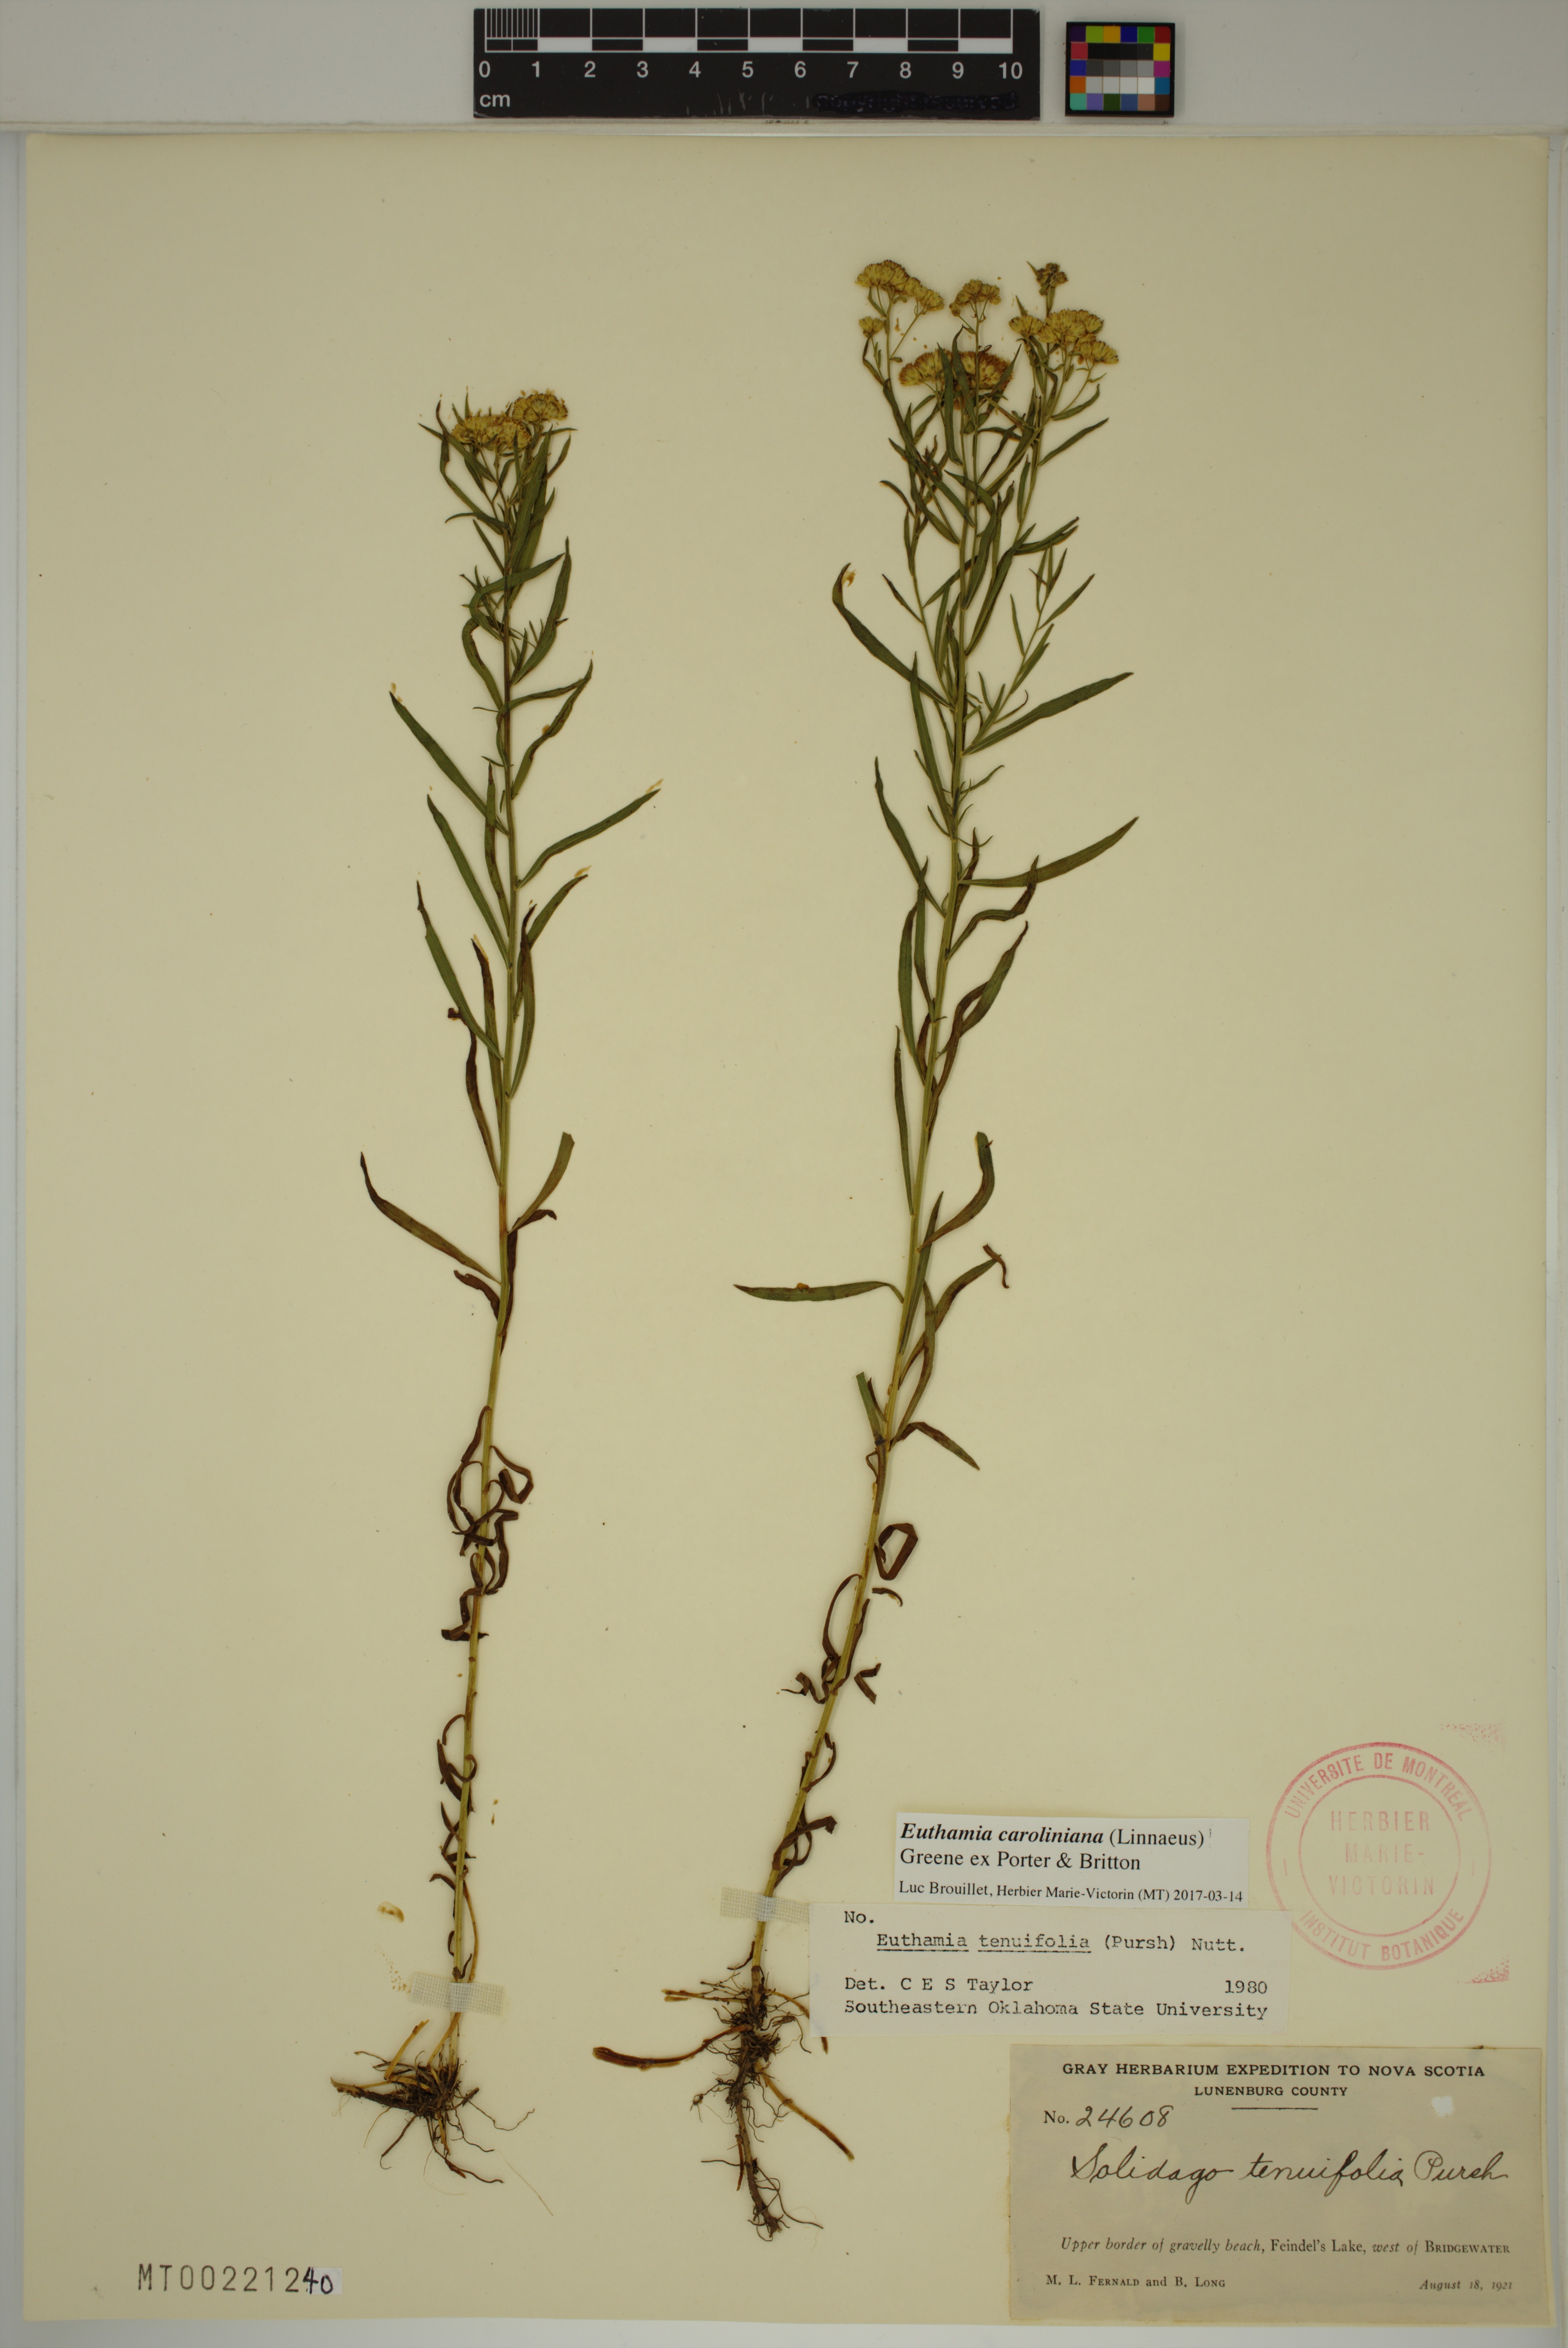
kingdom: Plantae
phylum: Tracheophyta
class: Magnoliopsida
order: Asterales
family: Asteraceae
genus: Euthamia
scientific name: Euthamia galetorum
